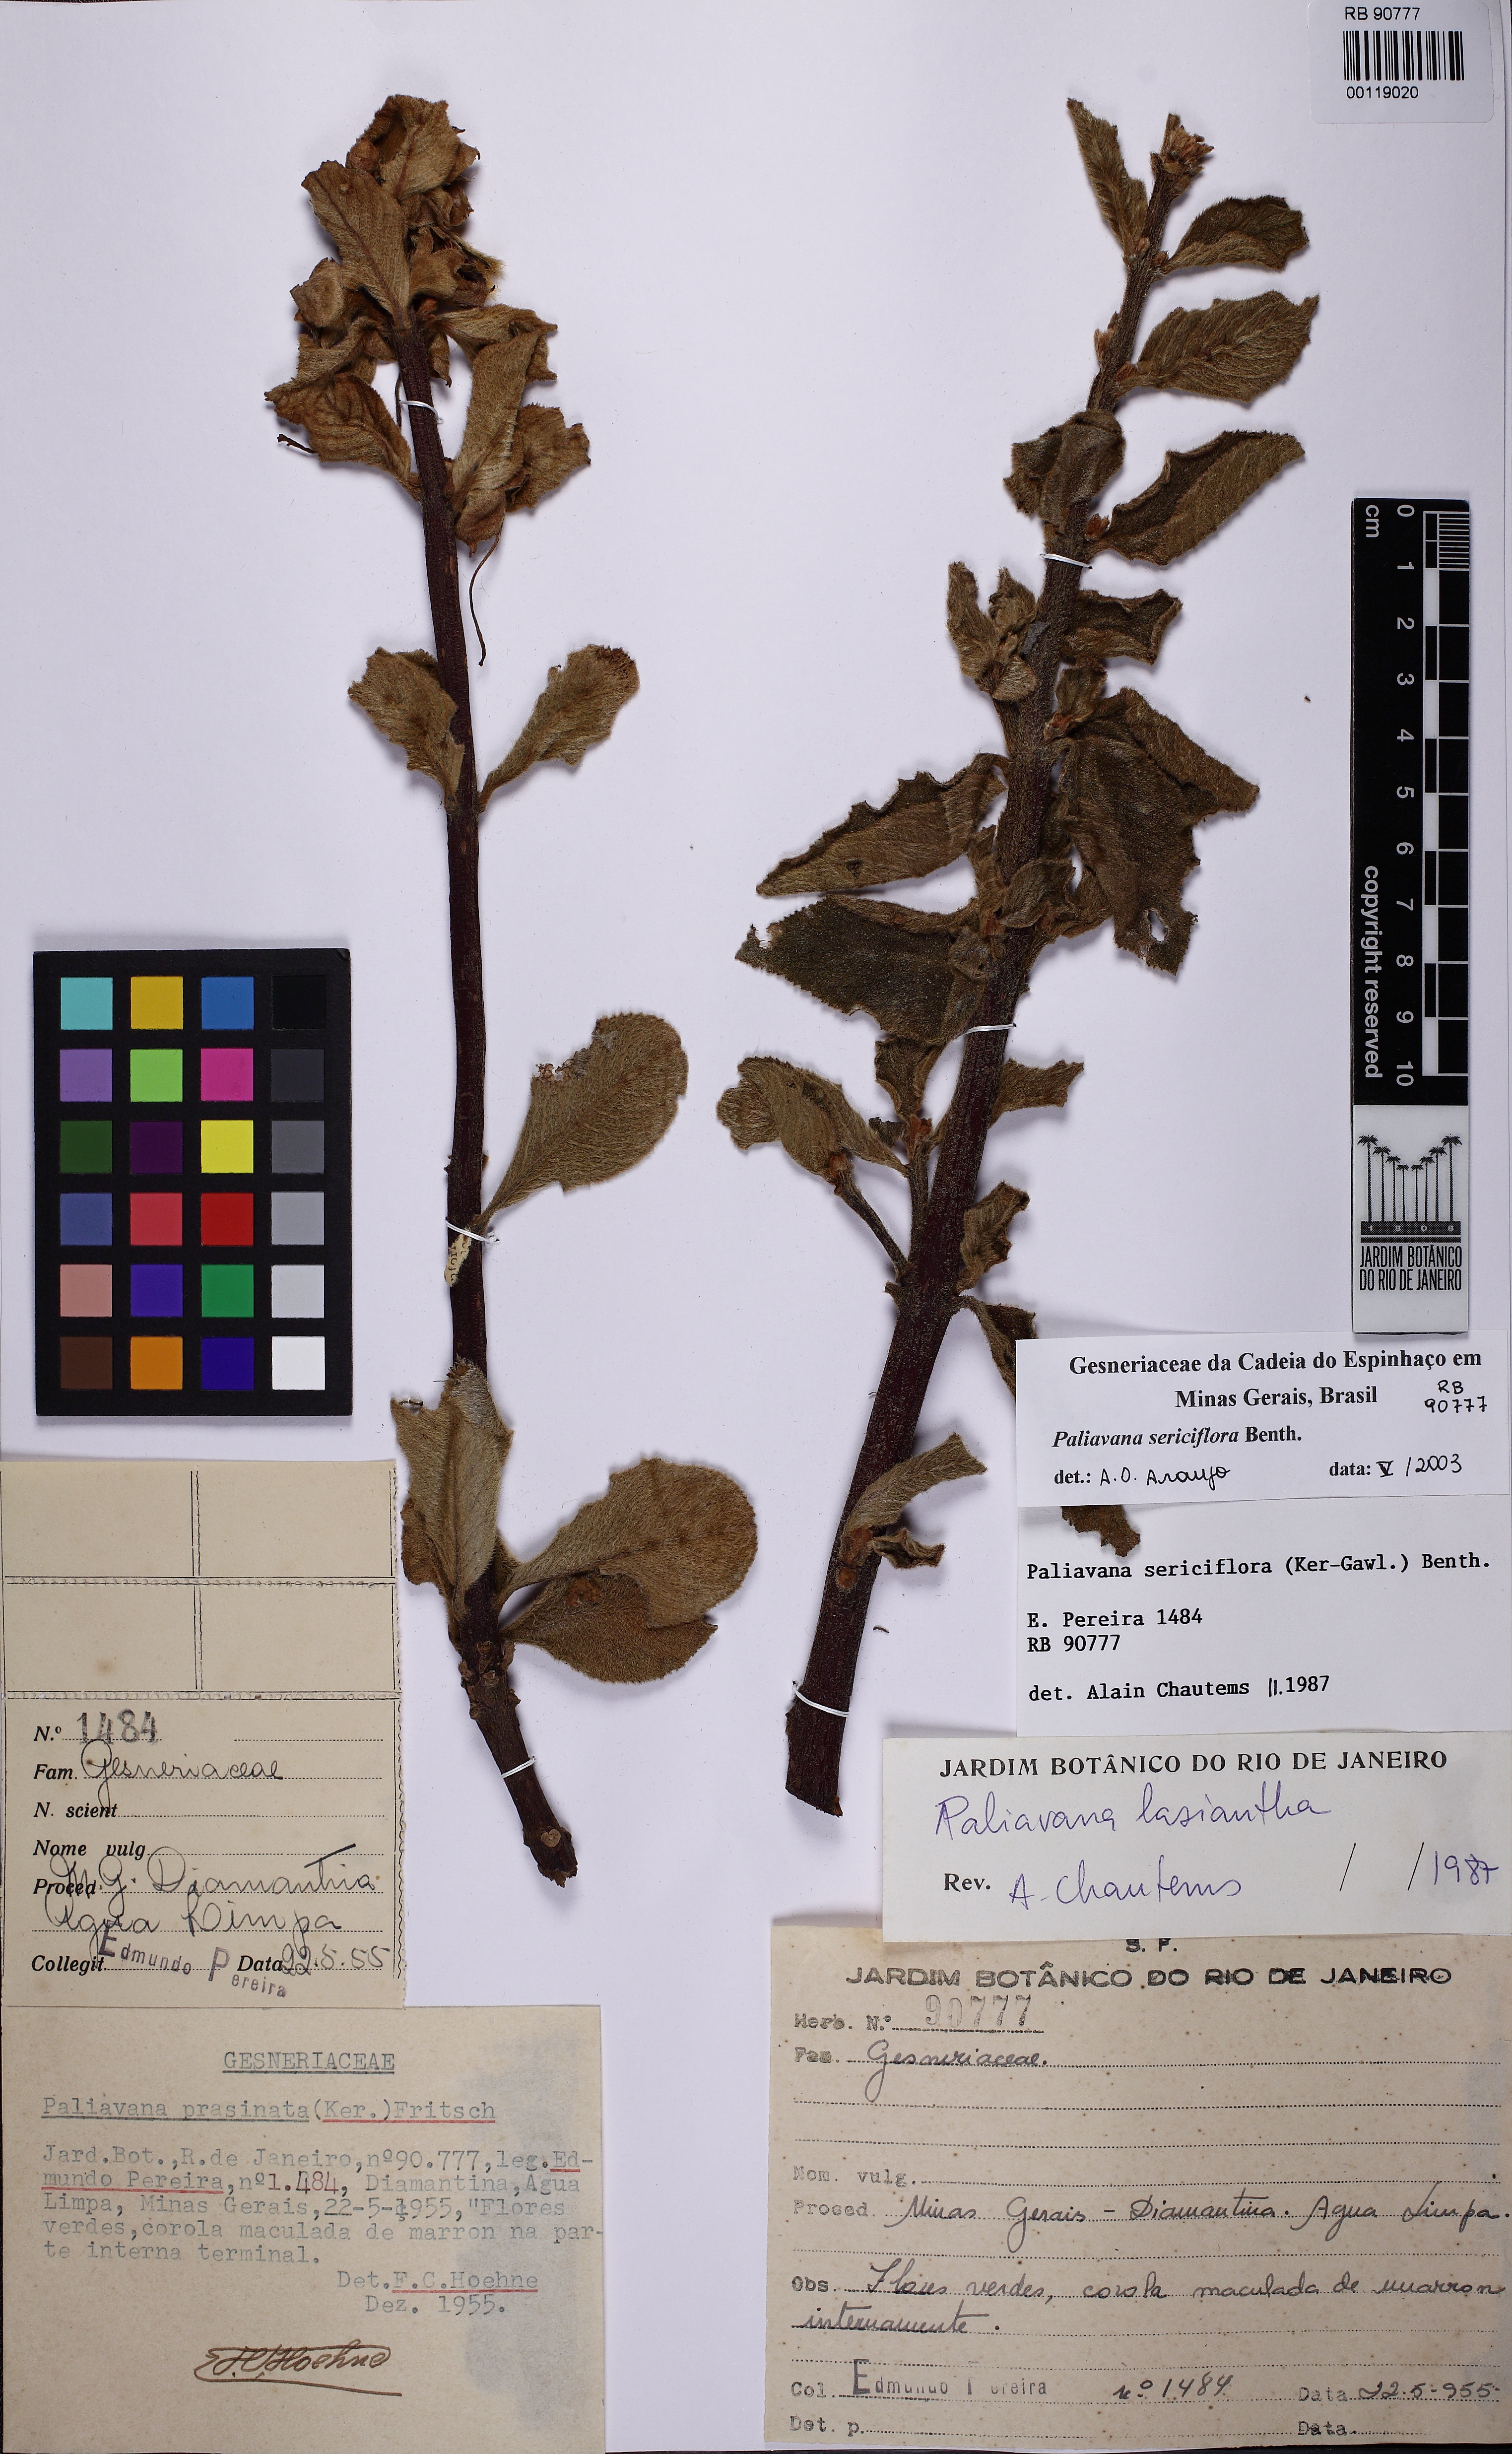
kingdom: Plantae
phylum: Tracheophyta
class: Magnoliopsida
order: Lamiales
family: Gesneriaceae
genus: Paliavana
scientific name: Paliavana sericiflora
